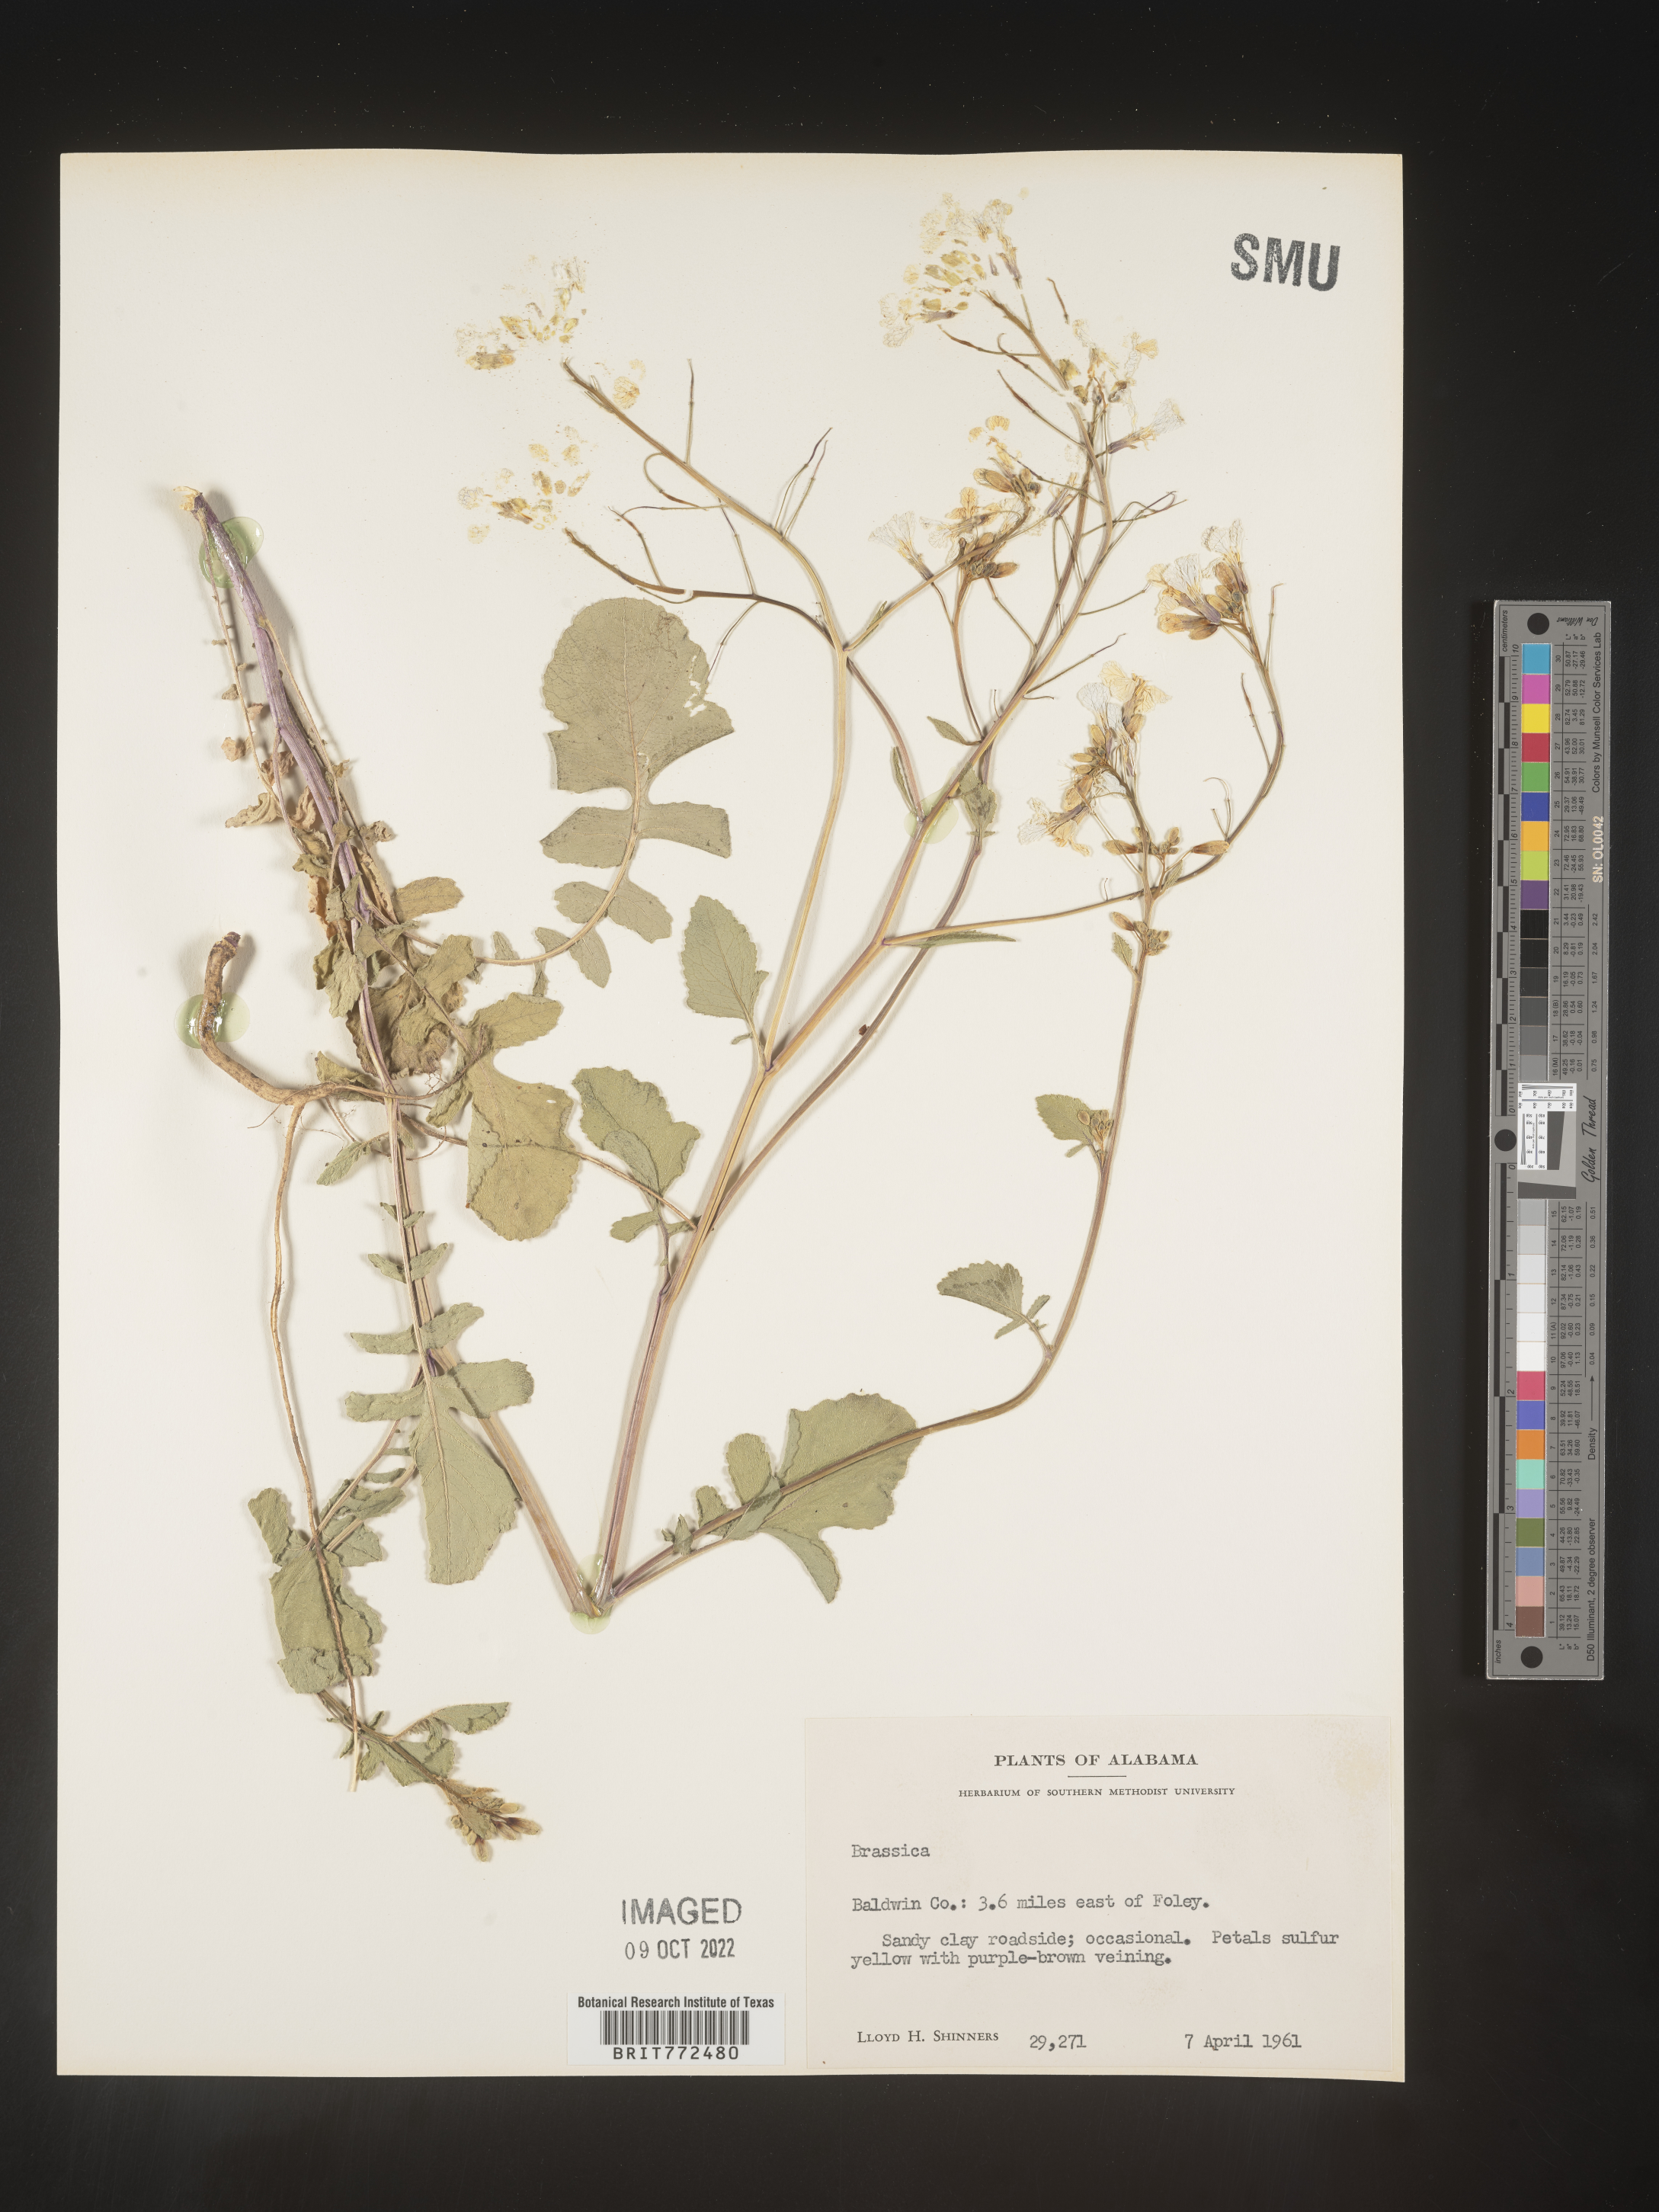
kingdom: Plantae
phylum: Tracheophyta
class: Magnoliopsida
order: Brassicales
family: Brassicaceae
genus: Brassica
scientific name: Brassica
